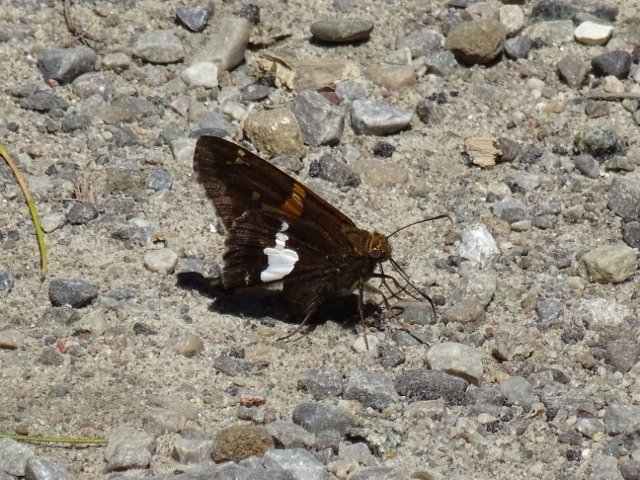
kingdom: Animalia
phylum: Arthropoda
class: Insecta
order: Lepidoptera
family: Hesperiidae
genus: Epargyreus
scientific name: Epargyreus clarus
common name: Silver-spotted Skipper
